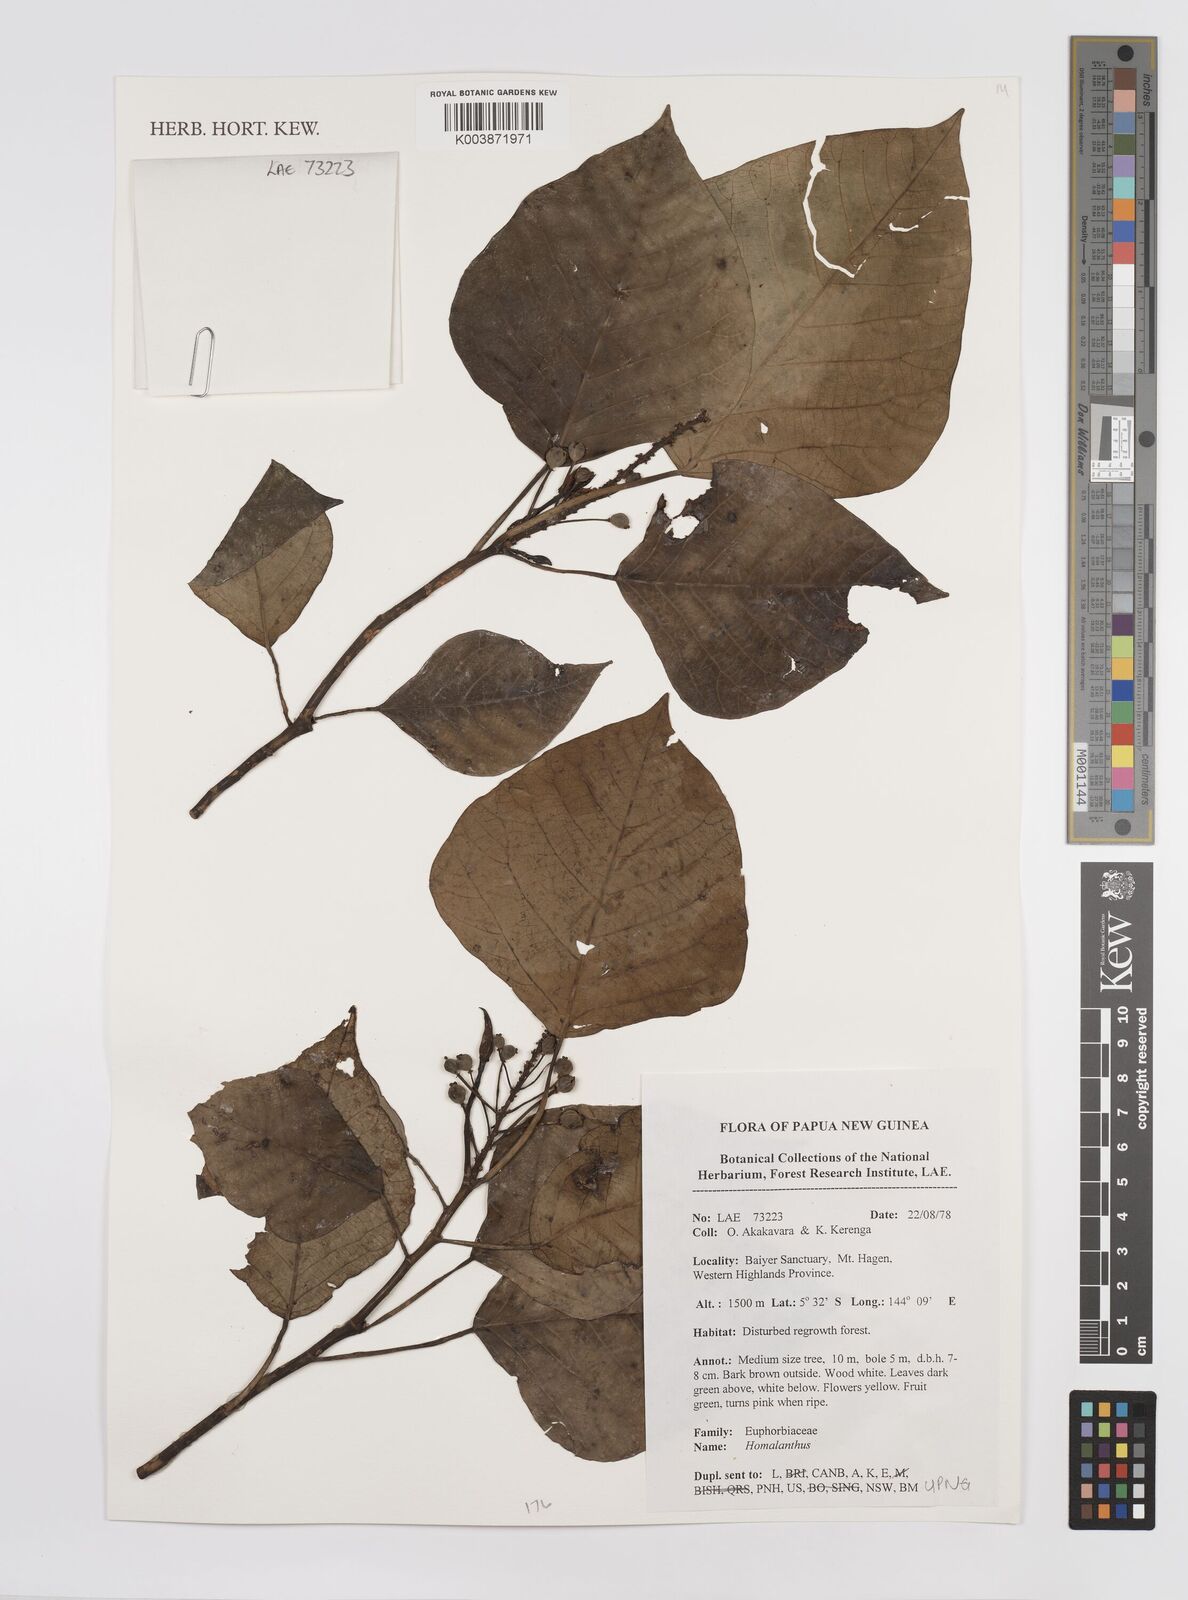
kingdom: Plantae
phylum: Tracheophyta
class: Magnoliopsida
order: Malpighiales
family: Euphorbiaceae
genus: Homalanthus
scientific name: Homalanthus
